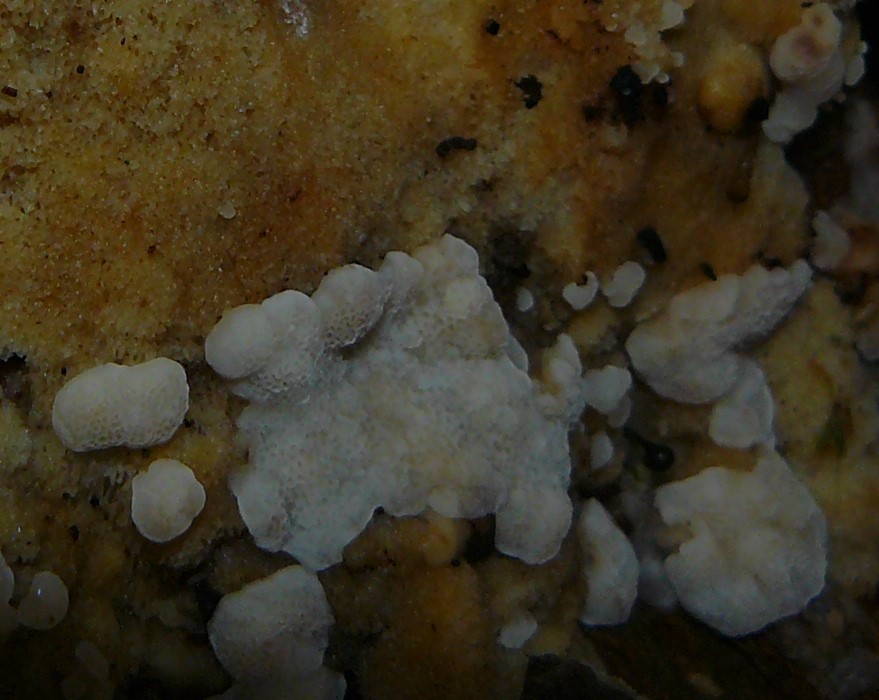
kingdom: Fungi
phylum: Basidiomycota
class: Agaricomycetes
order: Polyporales
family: Meruliaceae
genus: Physisporinus
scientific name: Physisporinus vitreus
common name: mastesvamp
